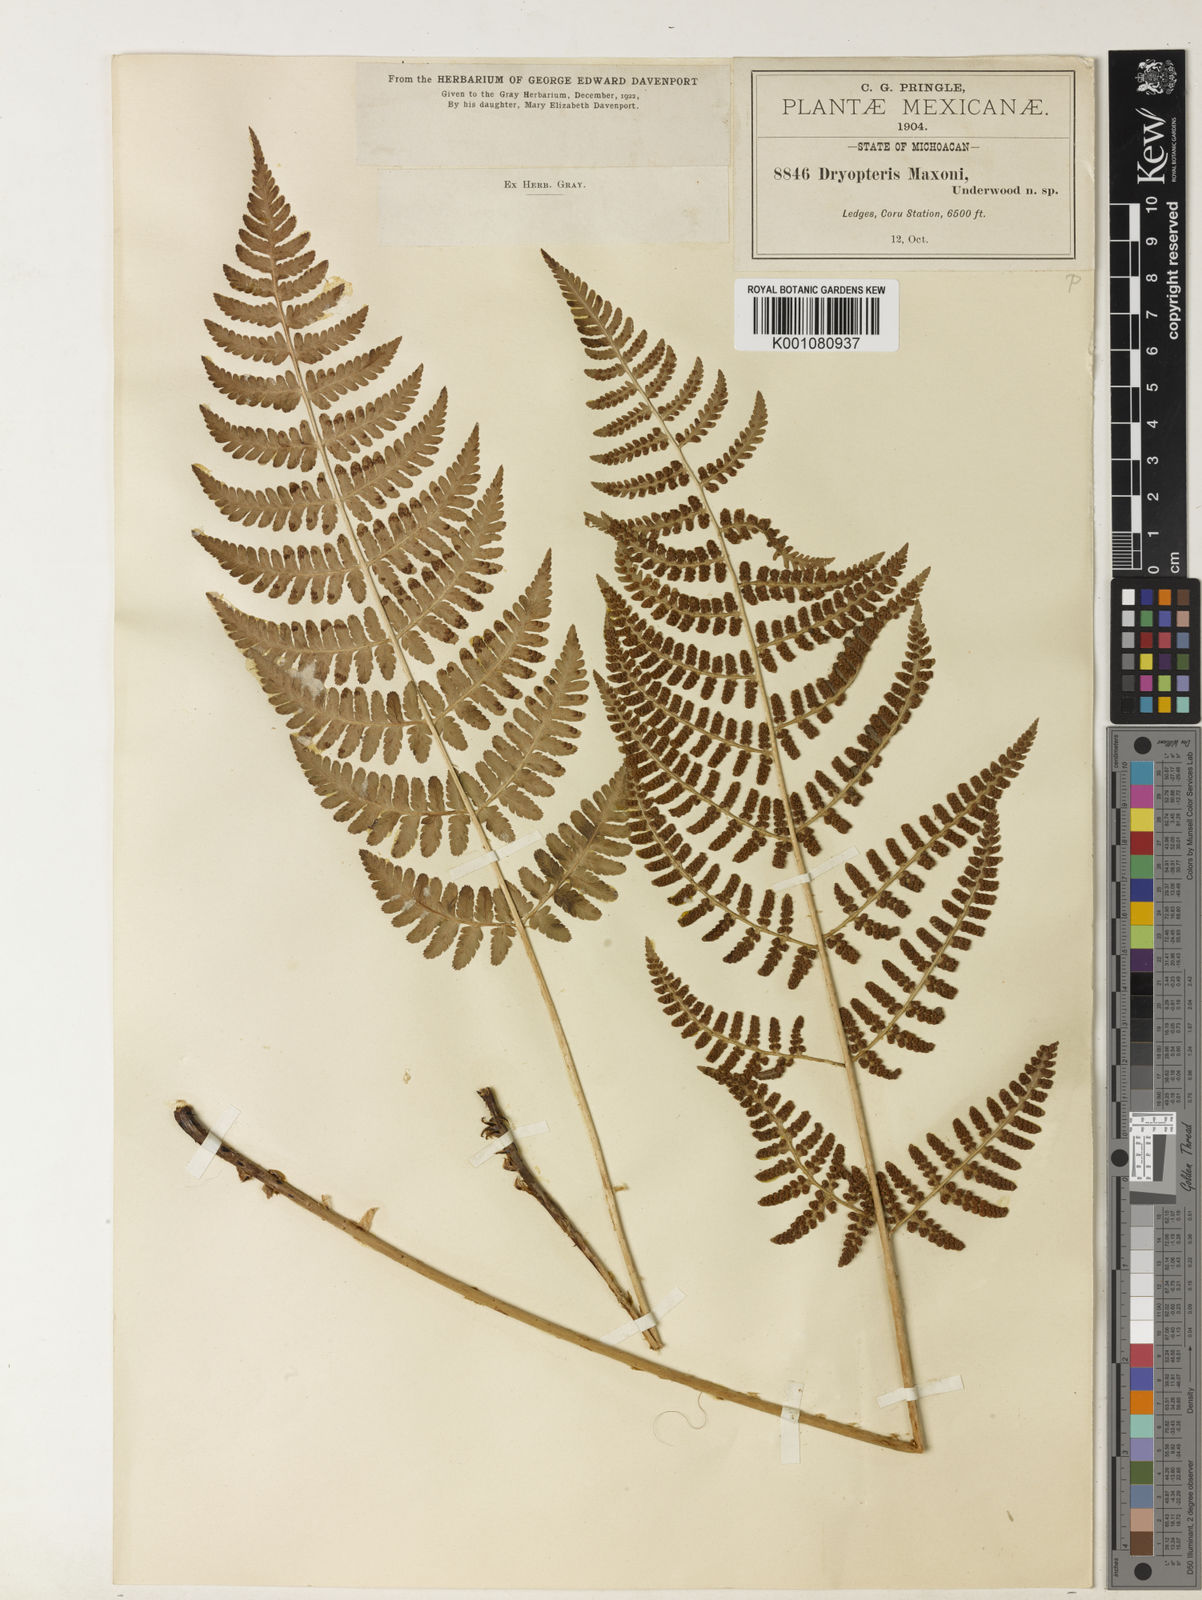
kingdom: Plantae
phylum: Tracheophyta
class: Polypodiopsida
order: Polypodiales
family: Dryopteridaceae
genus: Dryopteris
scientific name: Dryopteris maxonii
